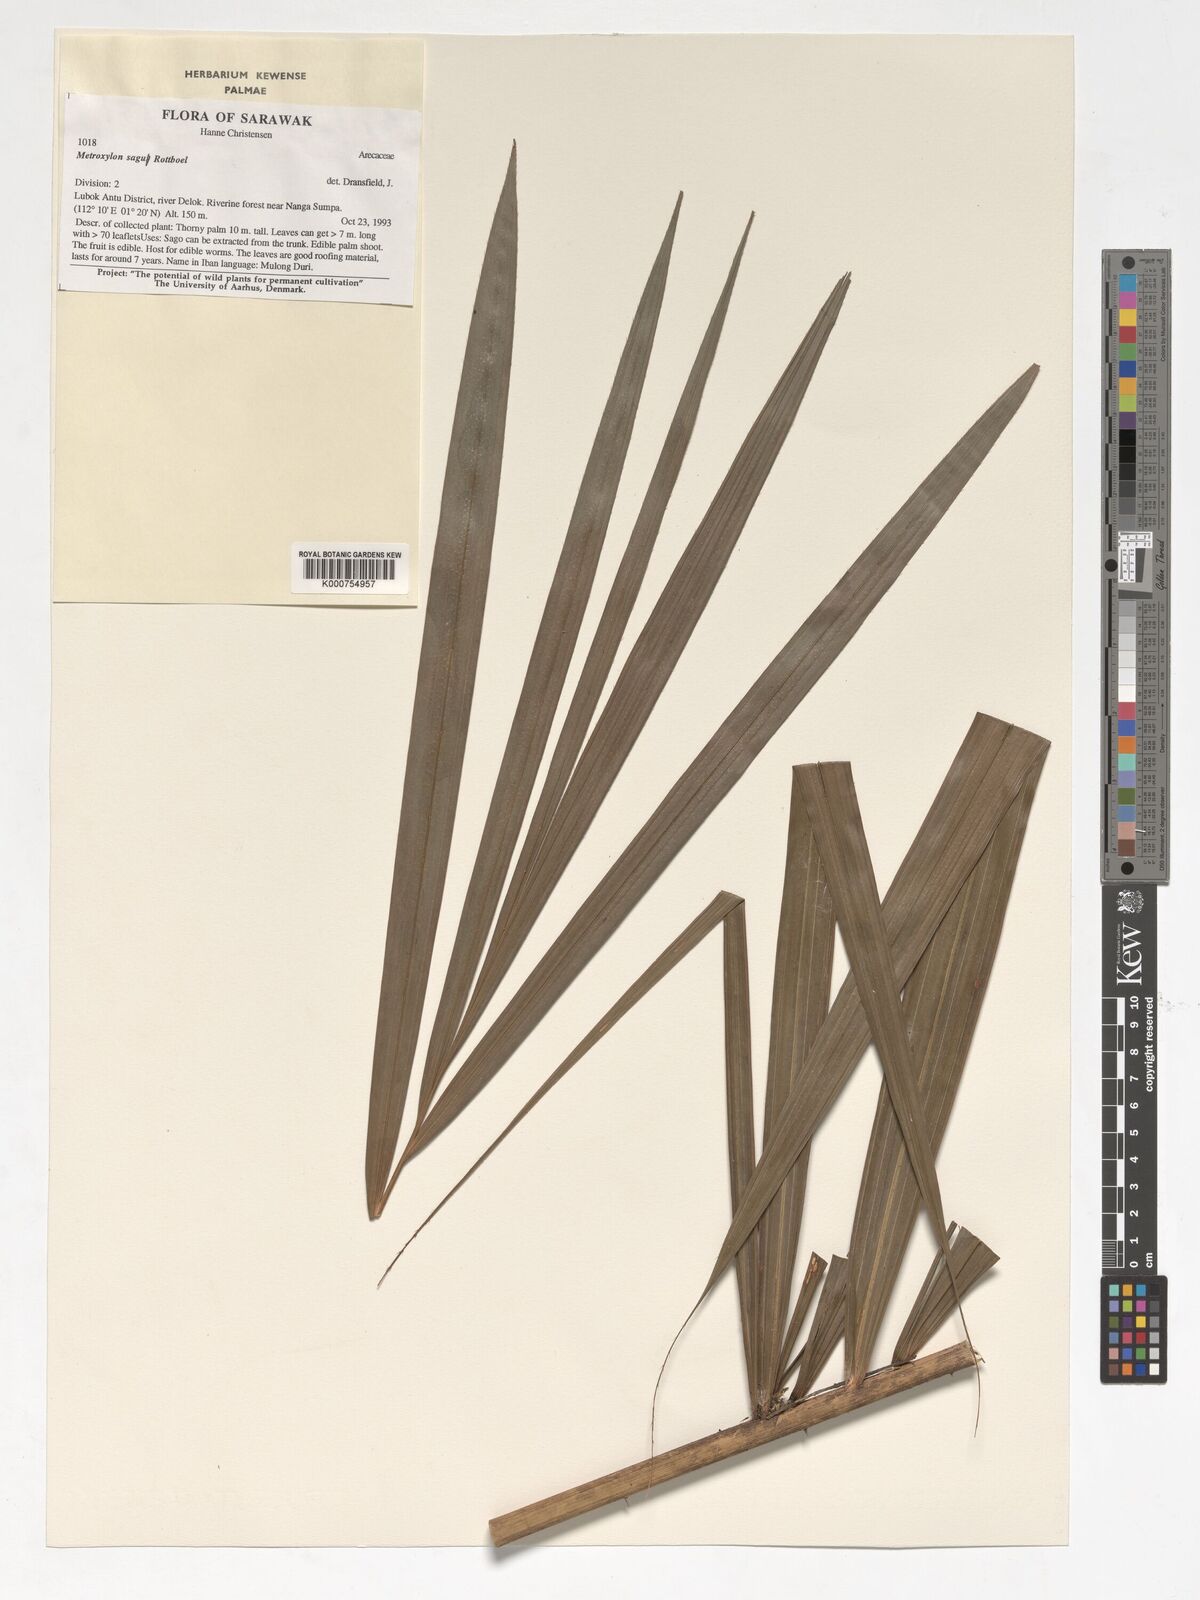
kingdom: Plantae
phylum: Tracheophyta
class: Liliopsida
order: Arecales
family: Arecaceae
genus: Metroxylon
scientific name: Metroxylon sagu
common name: Sago palm
